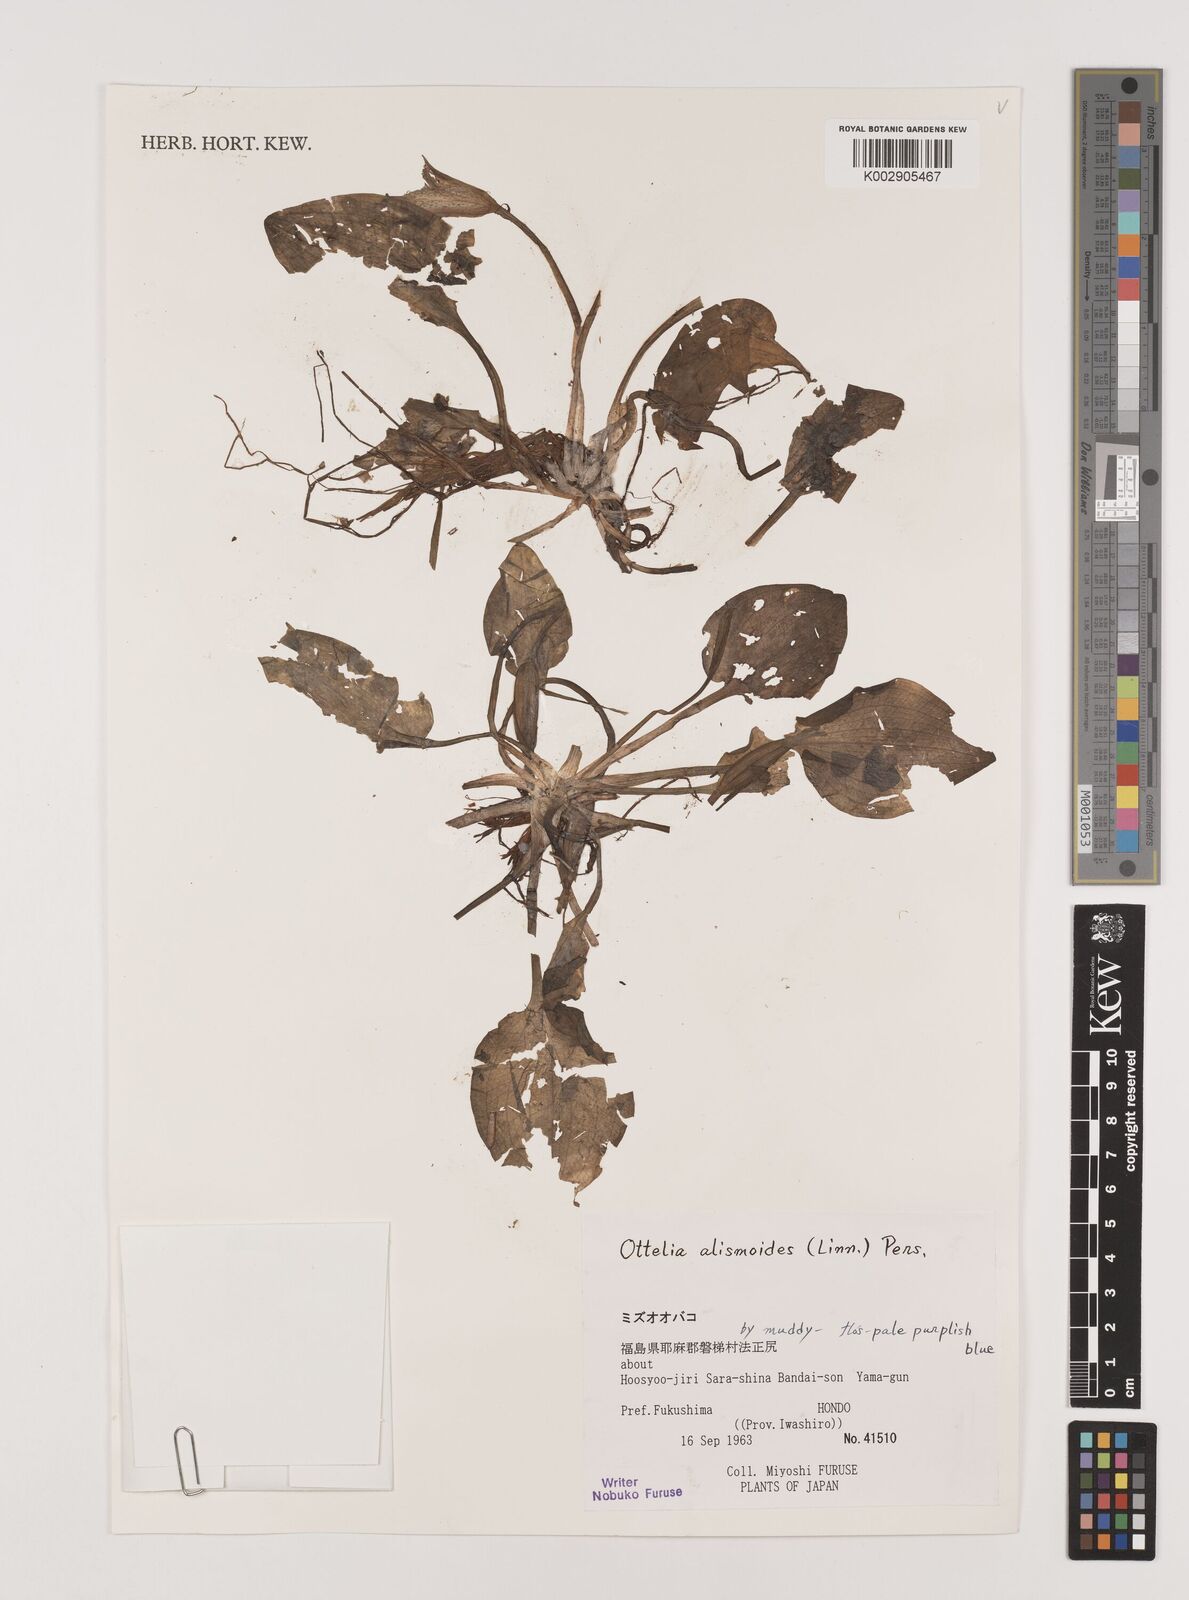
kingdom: Plantae
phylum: Tracheophyta
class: Liliopsida
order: Alismatales
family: Hydrocharitaceae
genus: Ottelia
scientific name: Ottelia alismoides
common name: Duck-lettuce
